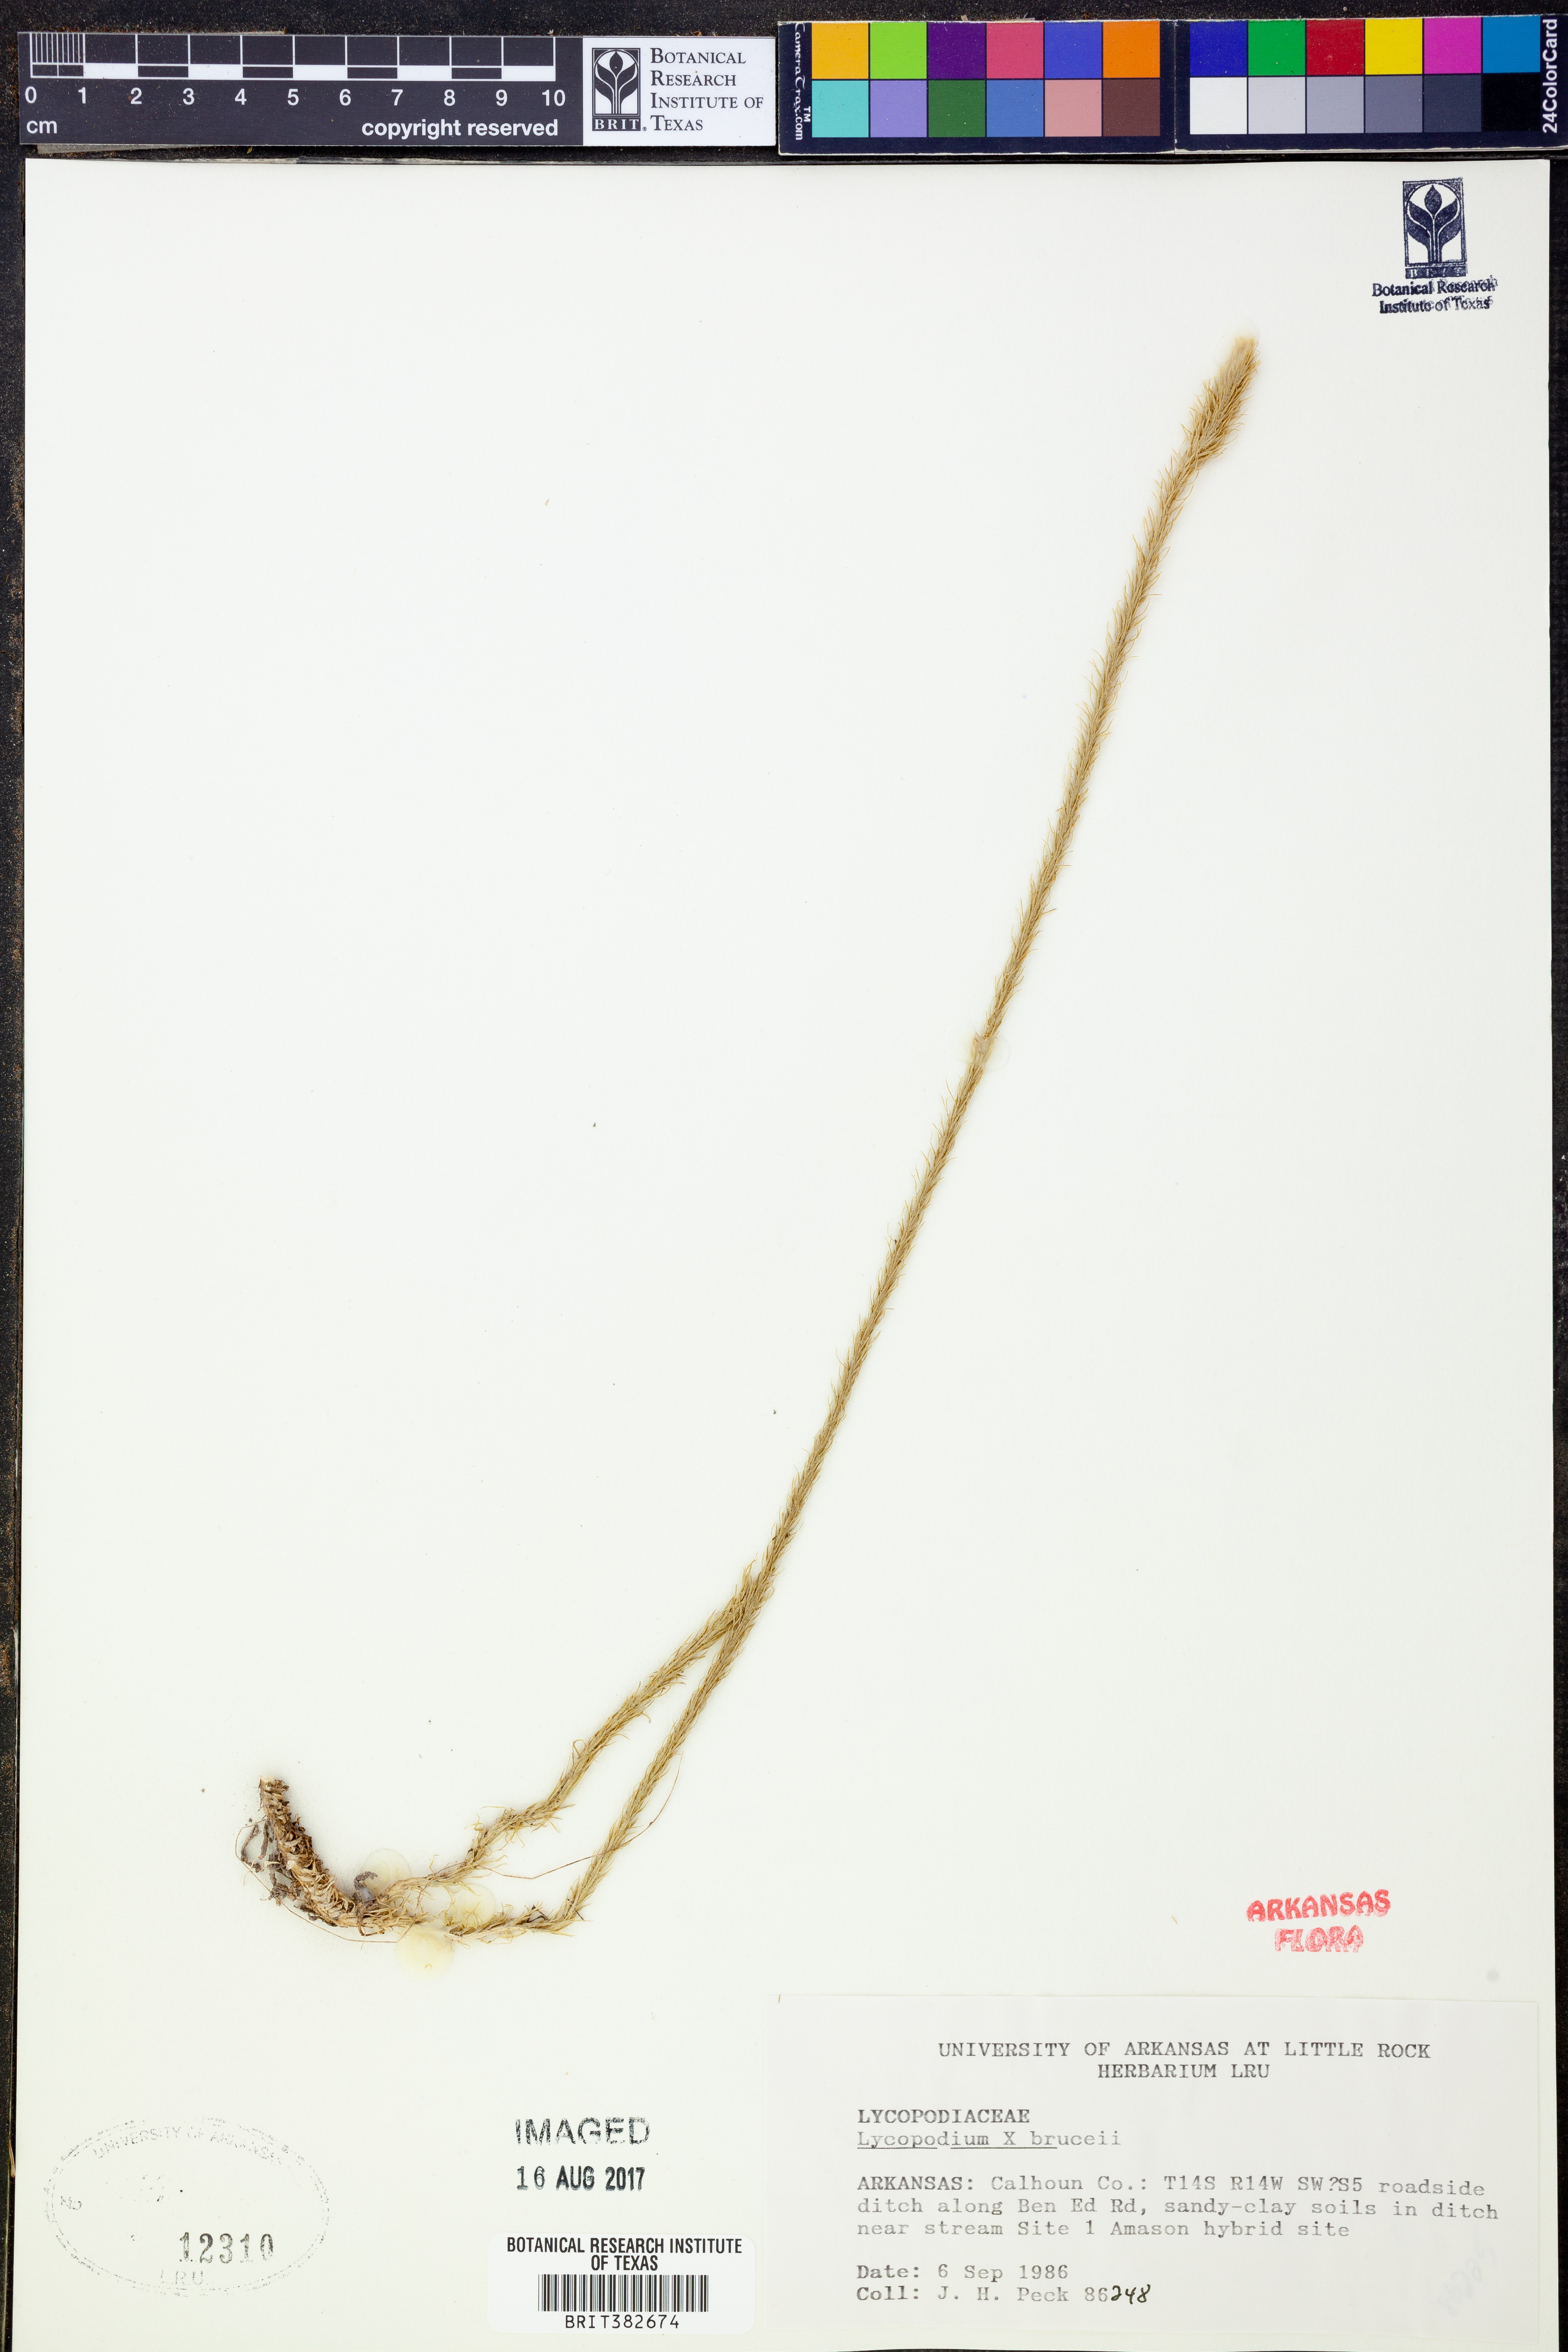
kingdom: Plantae
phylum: Tracheophyta
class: Lycopodiopsida
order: Lycopodiales
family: Lycopodiaceae
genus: Lycopodiella
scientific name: Lycopodiella brucei
